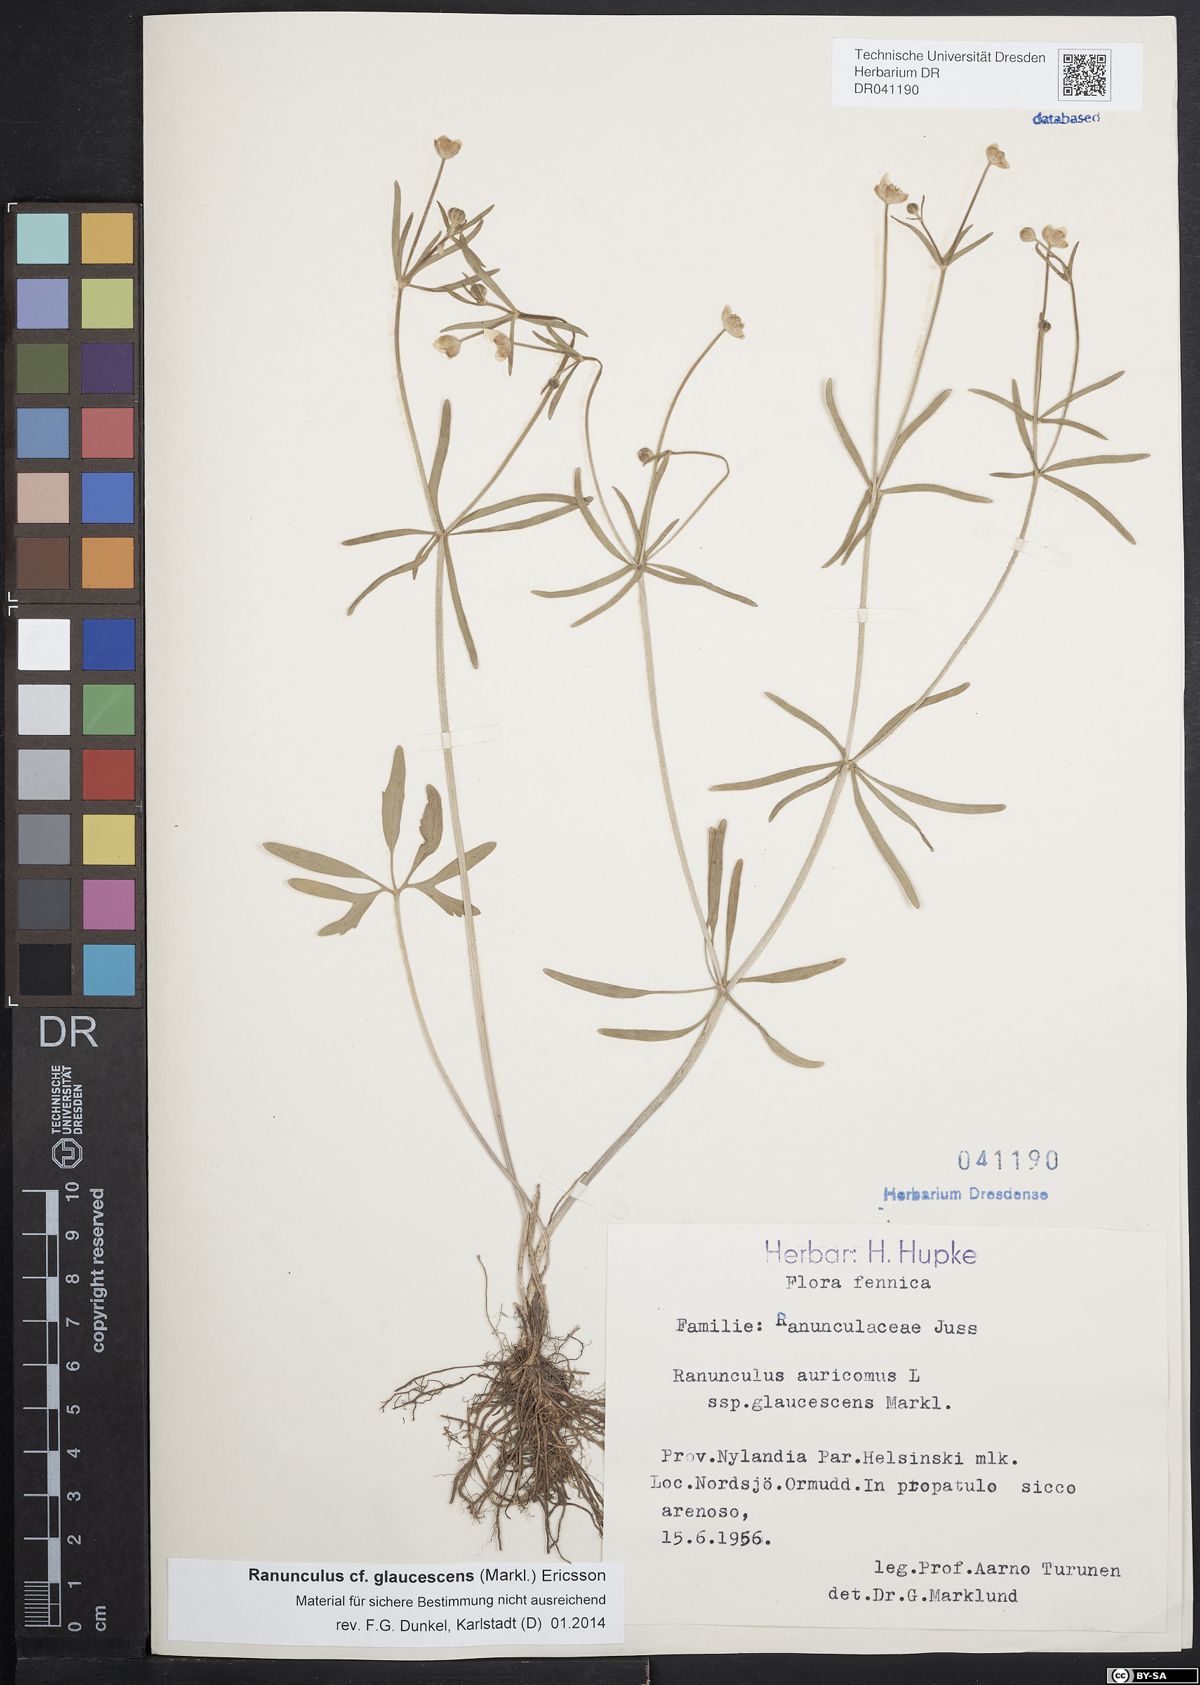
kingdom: Plantae
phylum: Tracheophyta
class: Magnoliopsida
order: Ranunculales
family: Ranunculaceae
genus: Ranunculus
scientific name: Ranunculus glaucescens
